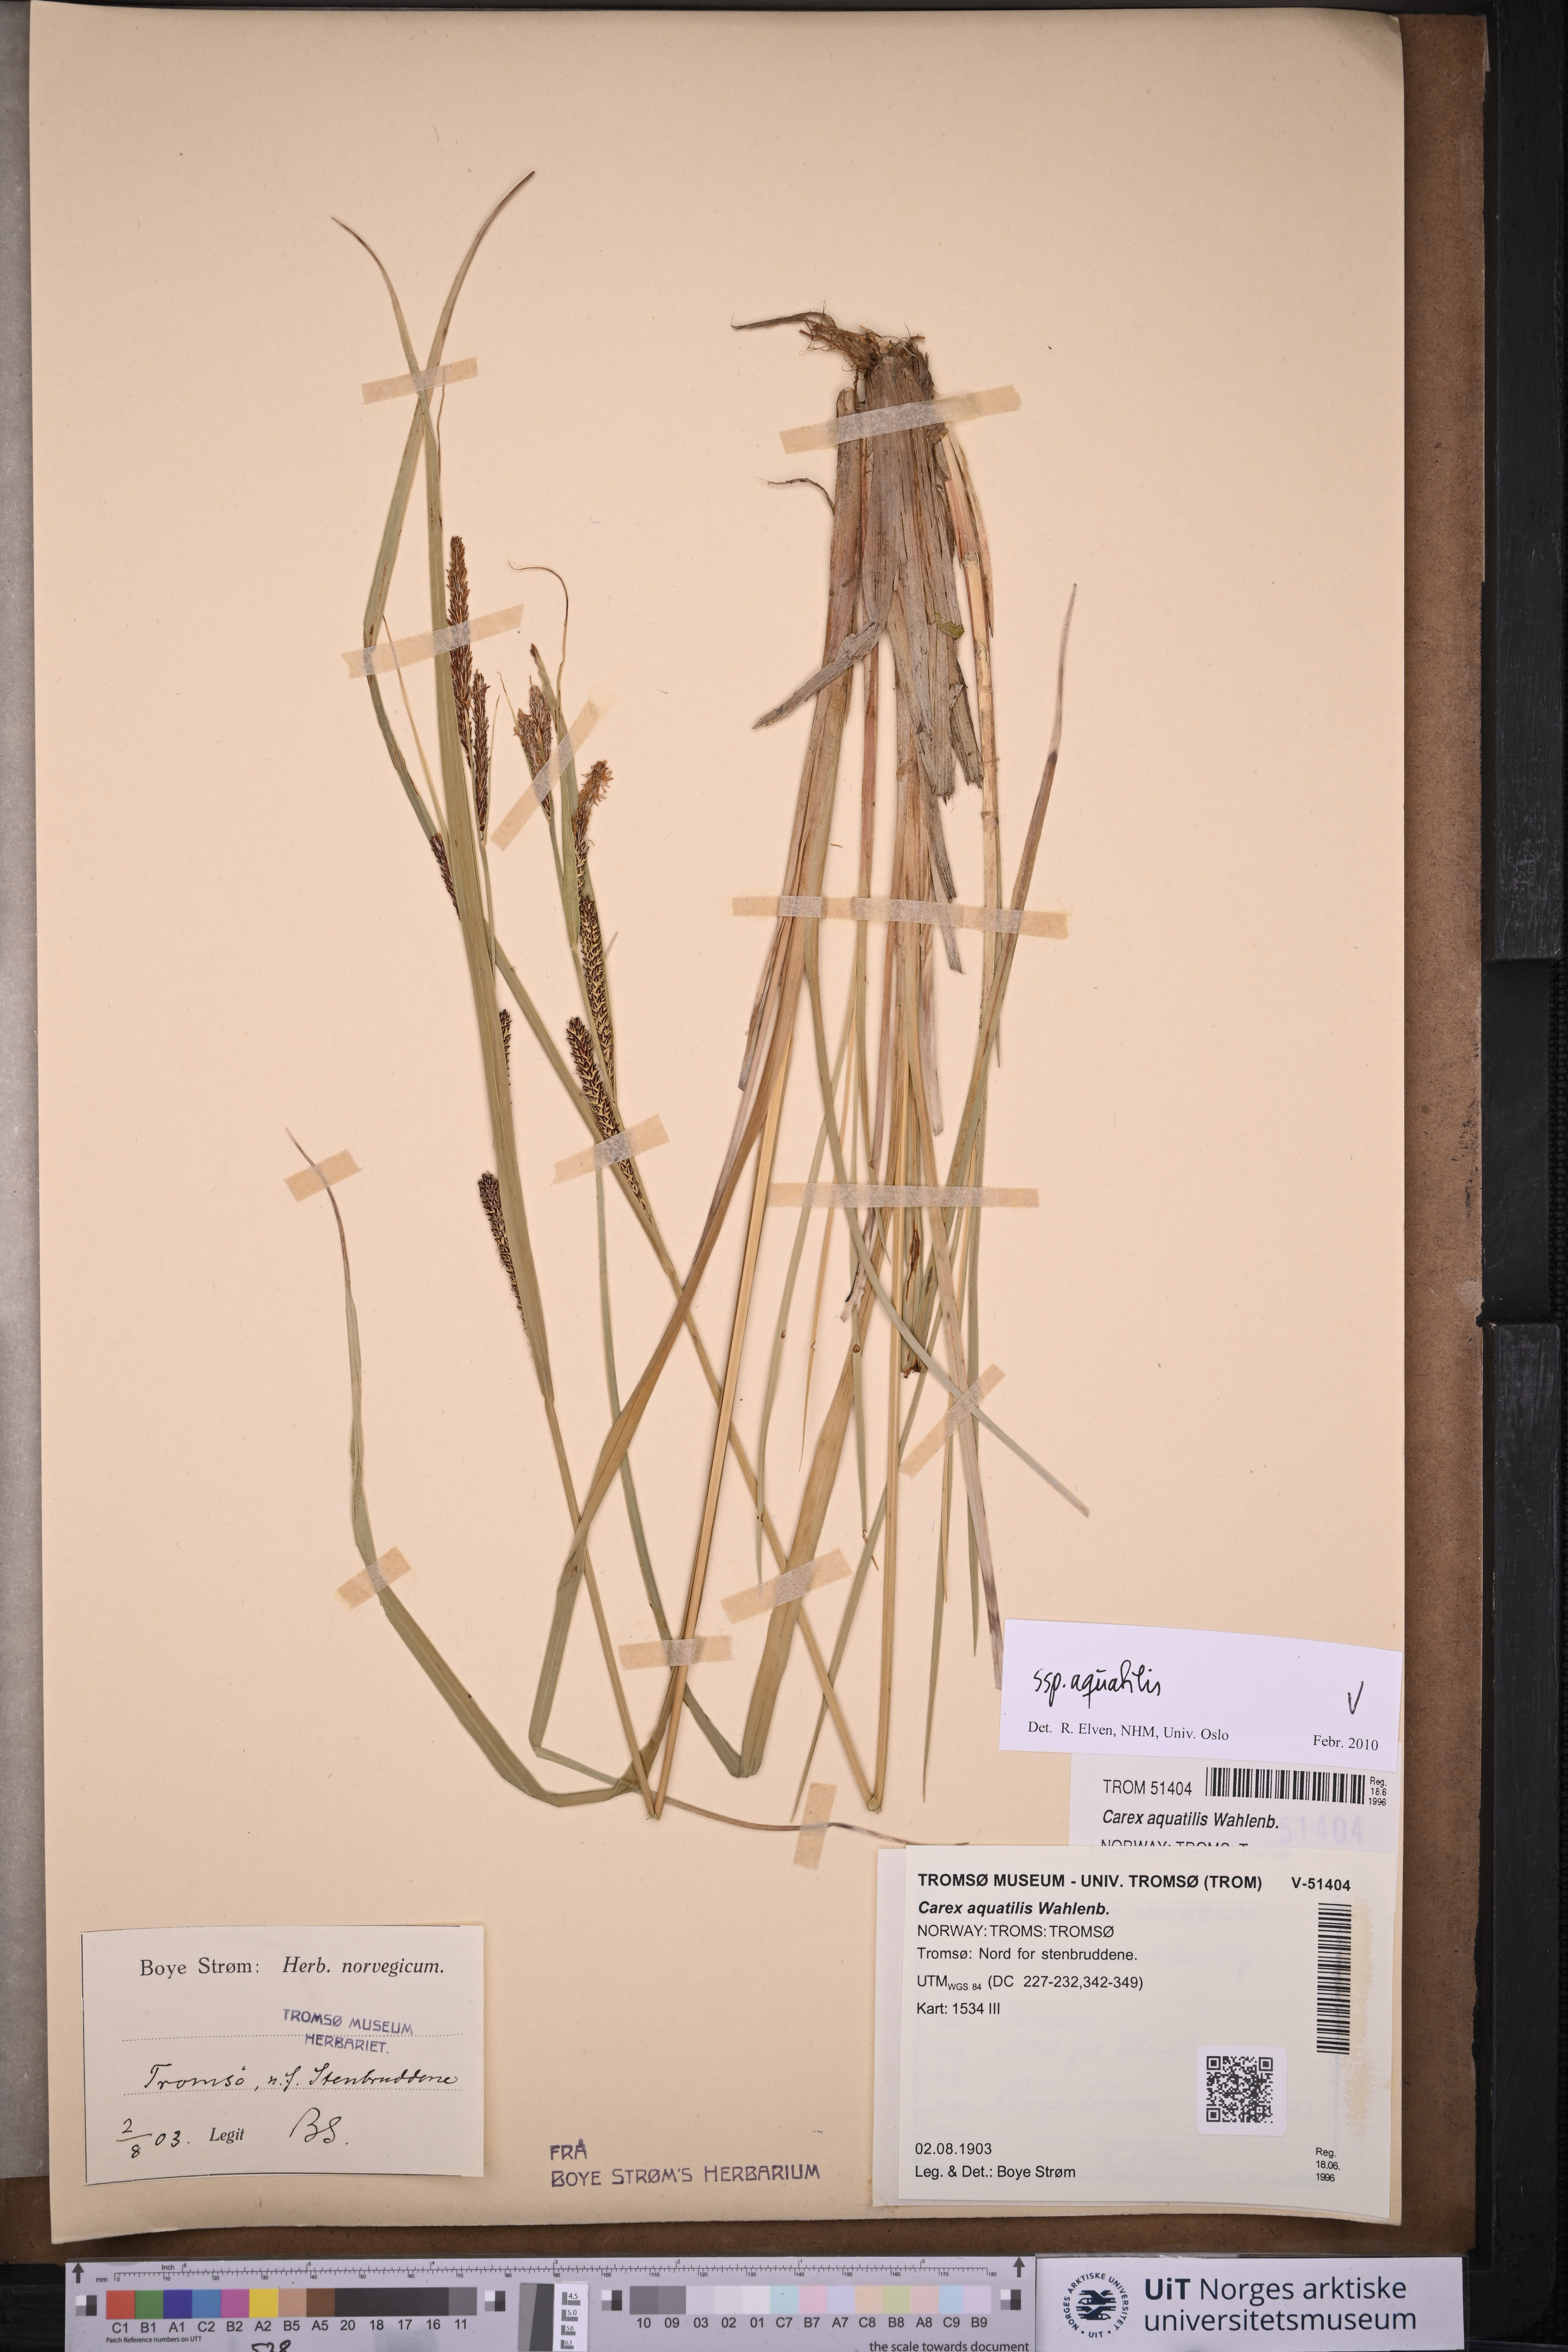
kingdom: Plantae
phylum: Tracheophyta
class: Liliopsida
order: Poales
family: Cyperaceae
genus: Carex
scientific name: Carex aquatilis
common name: Water sedge
